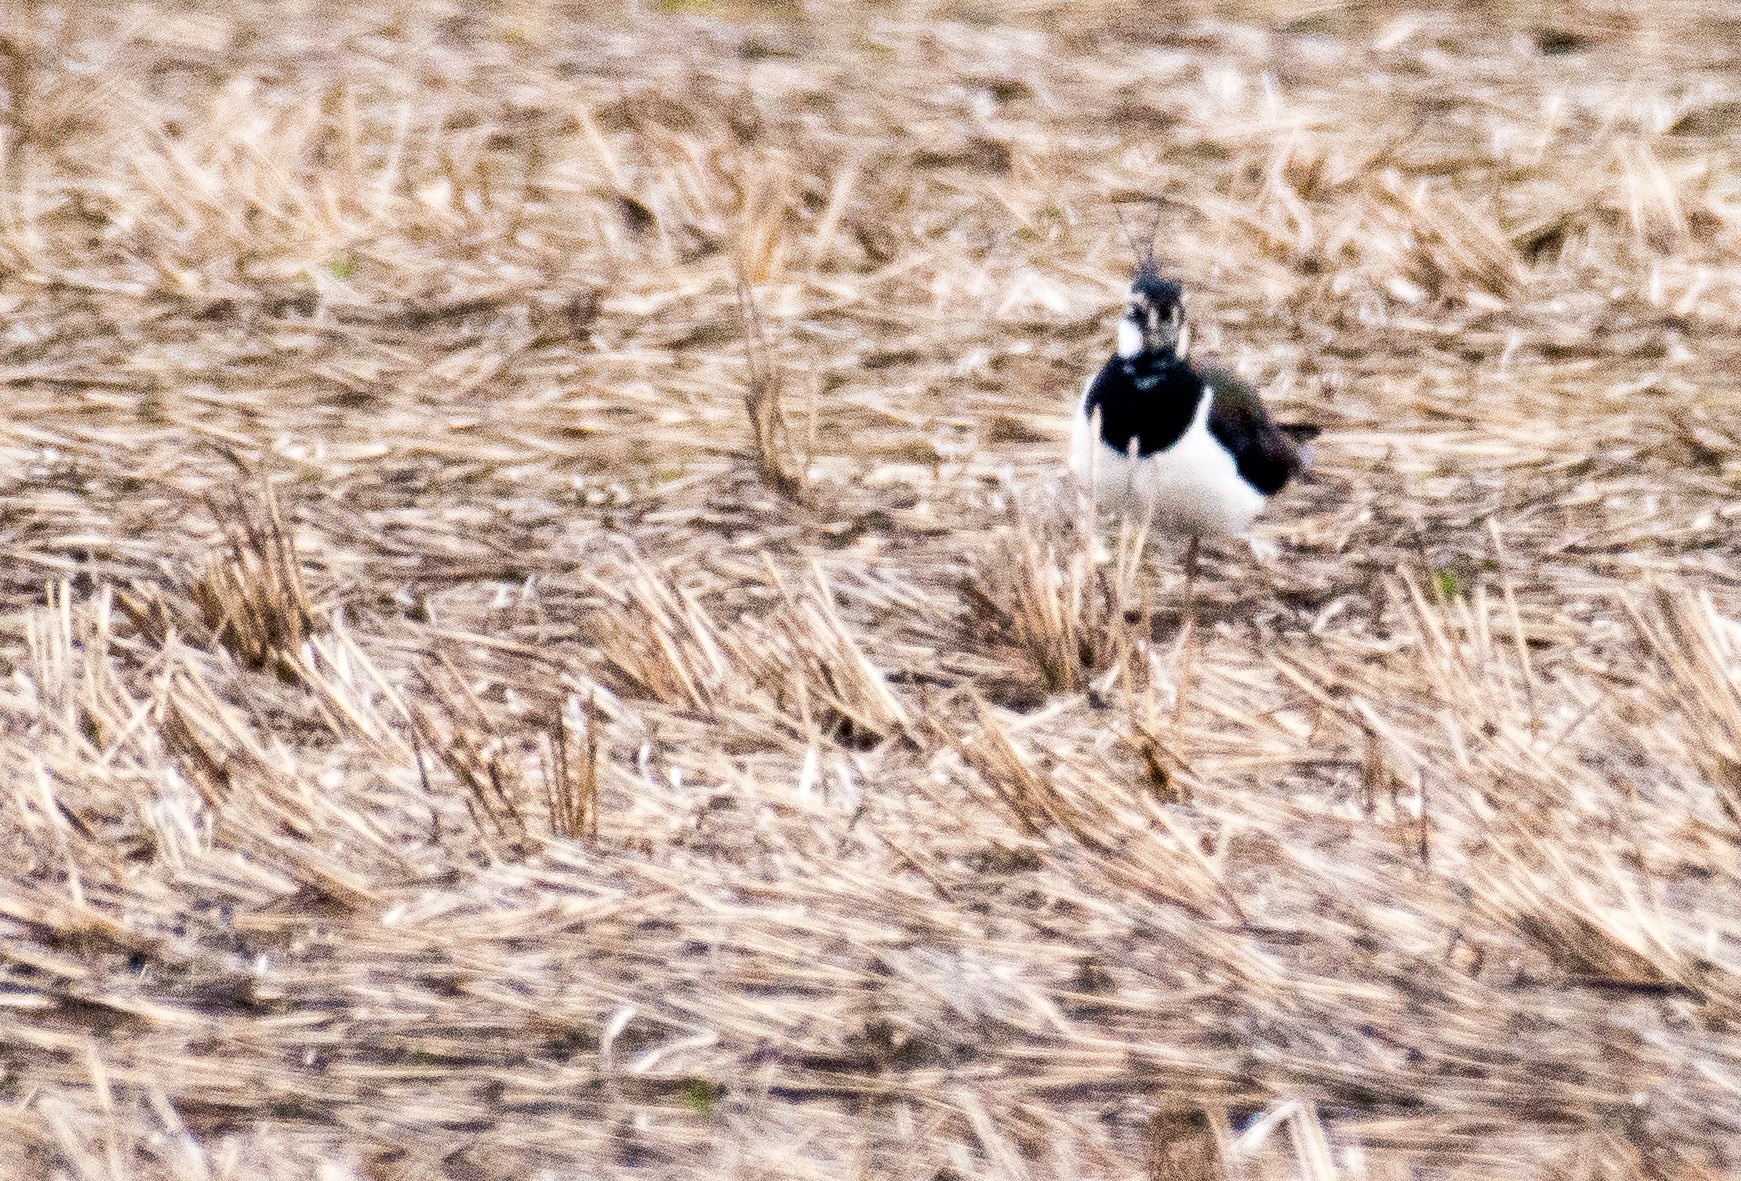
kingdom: Animalia
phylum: Chordata
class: Aves
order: Charadriiformes
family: Charadriidae
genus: Vanellus
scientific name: Vanellus vanellus
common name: Vibe
